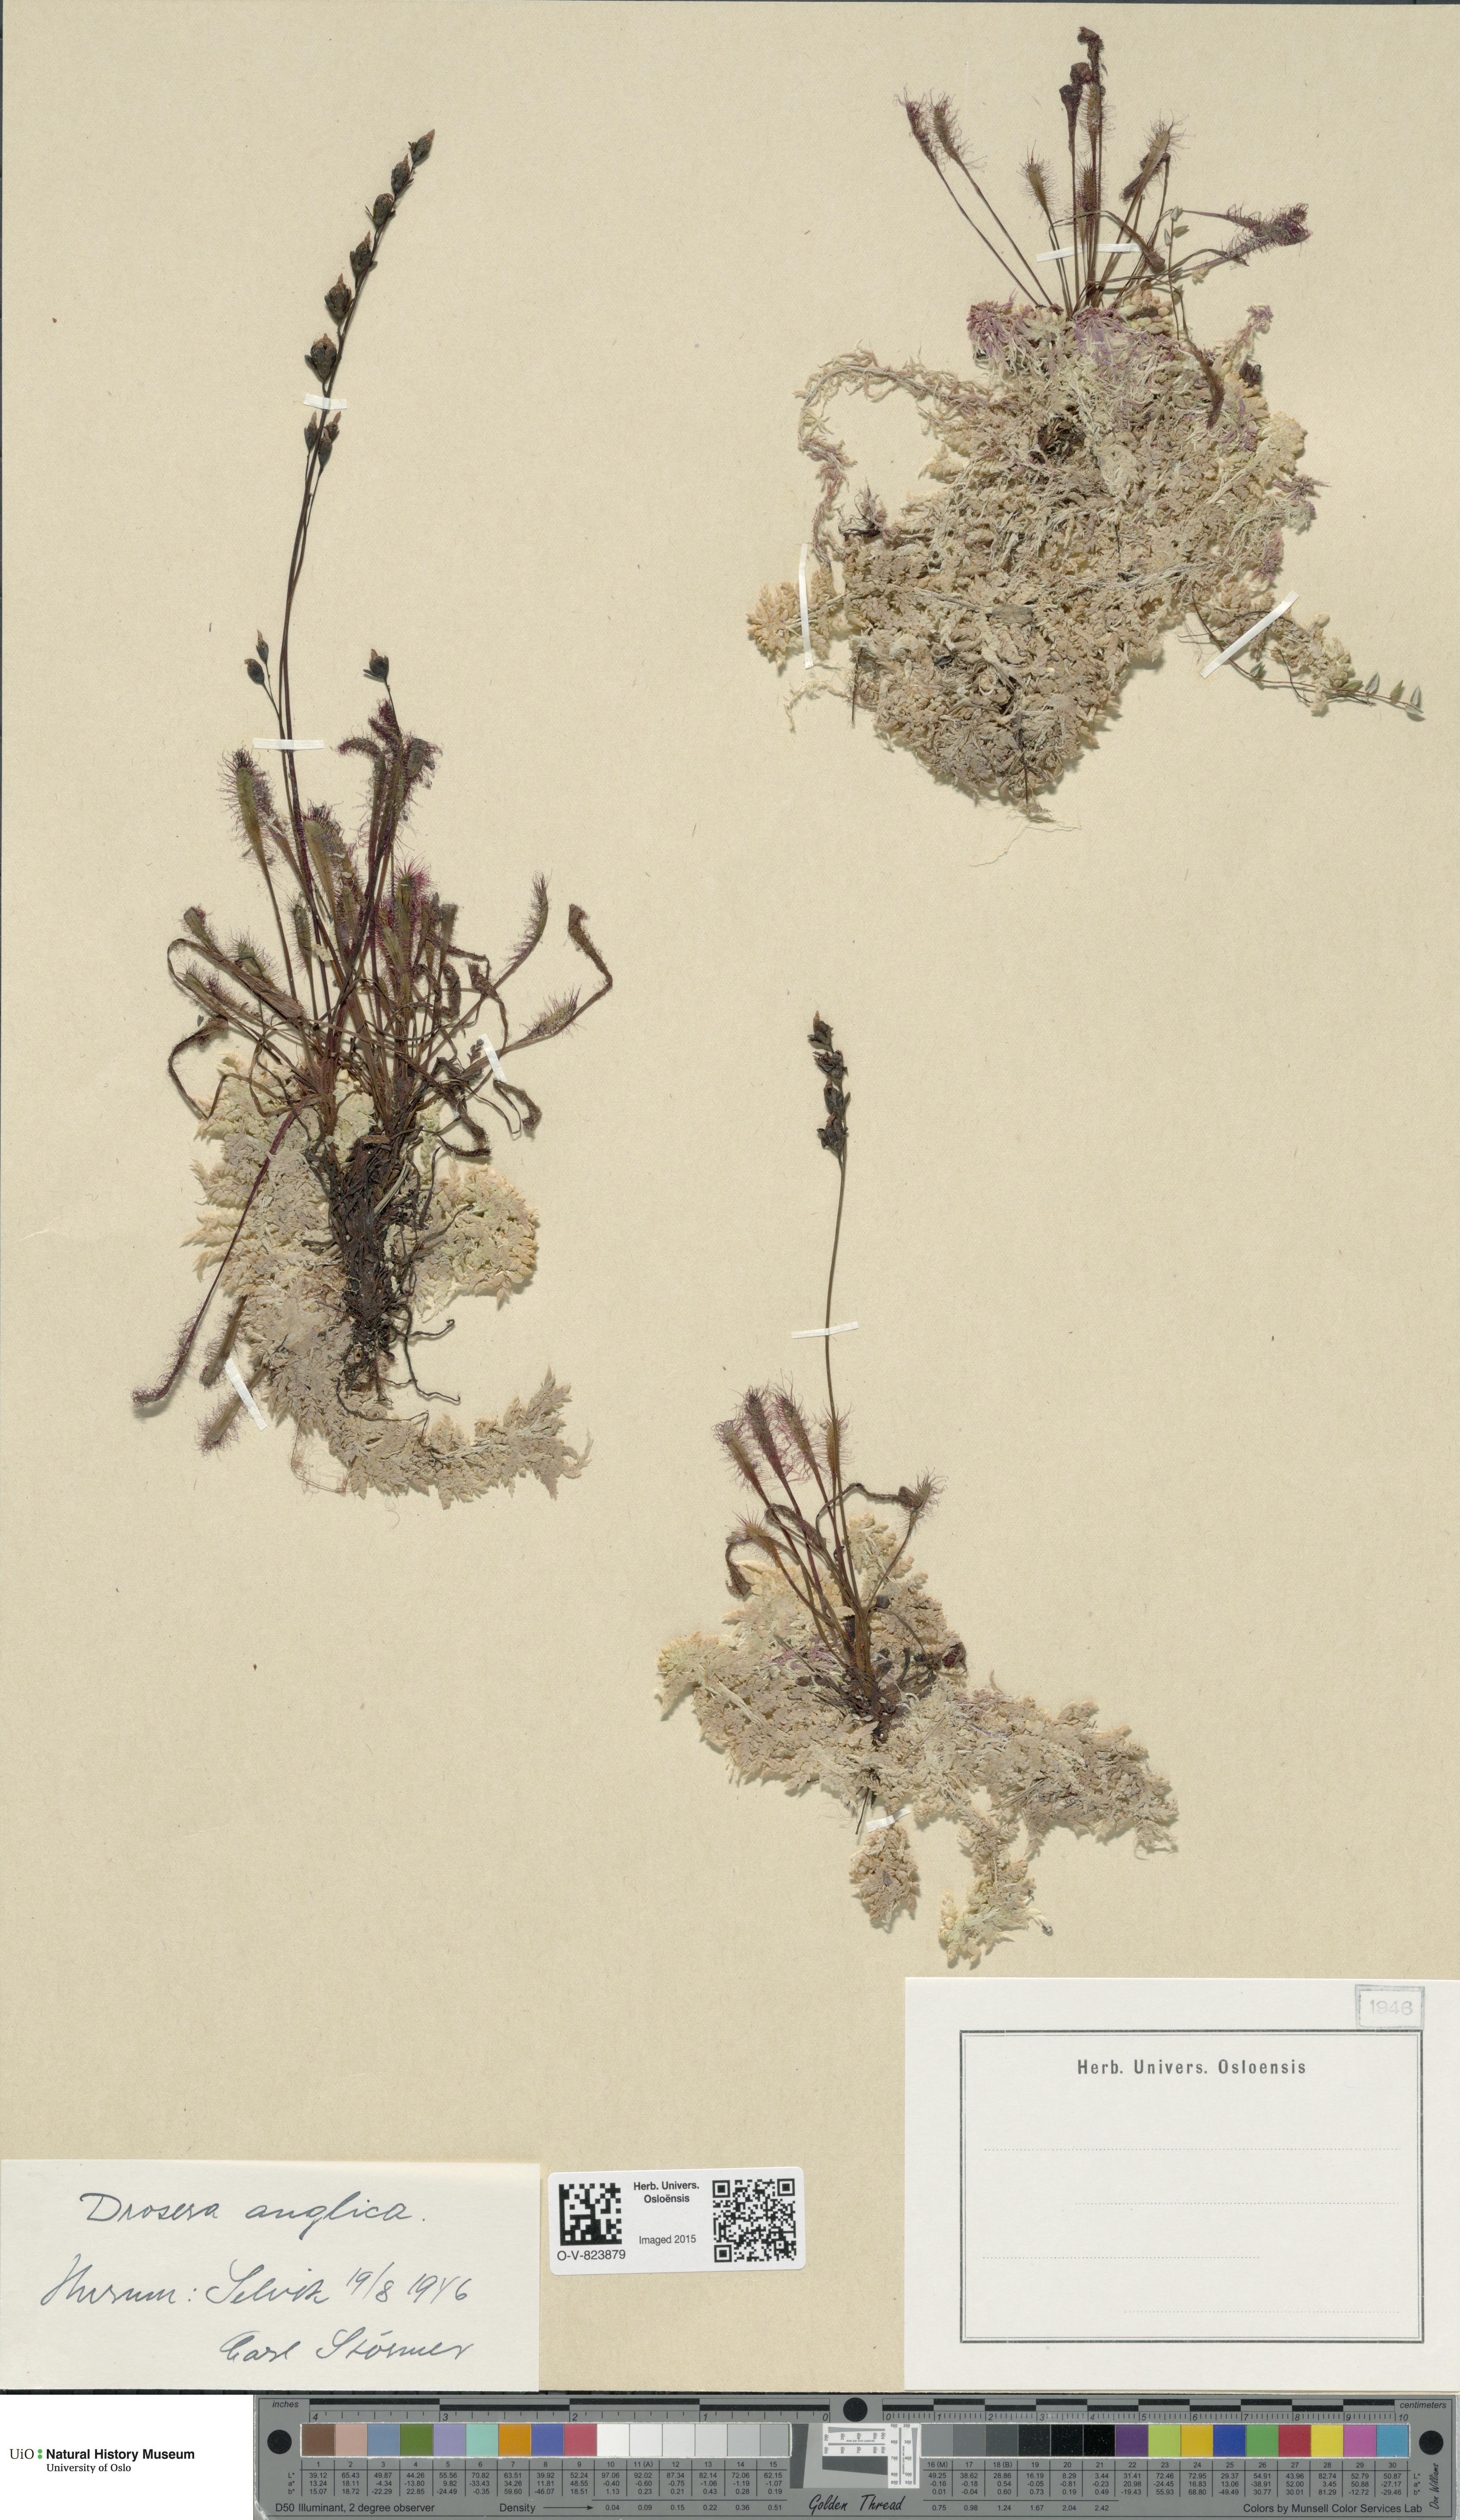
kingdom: Plantae
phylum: Tracheophyta
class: Magnoliopsida
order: Caryophyllales
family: Droseraceae
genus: Drosera
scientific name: Drosera anglica
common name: Great sundew
